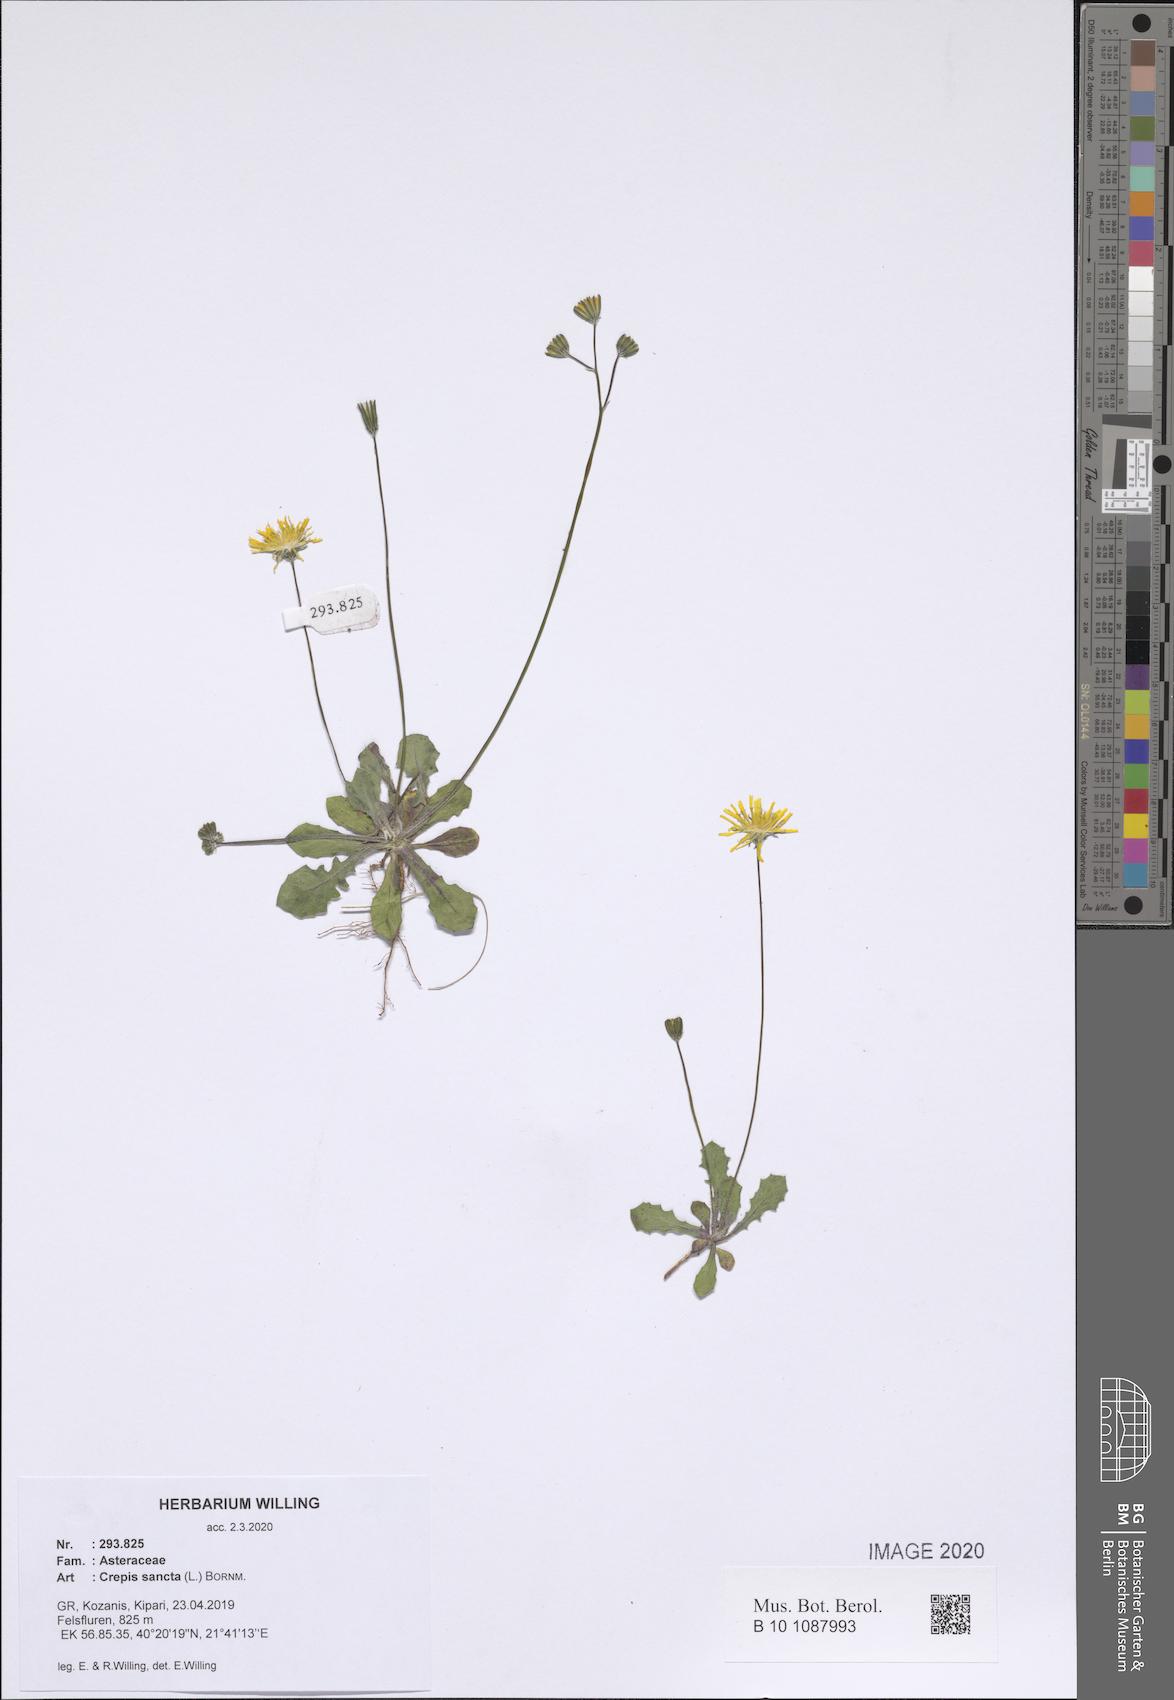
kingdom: Plantae
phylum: Tracheophyta
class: Magnoliopsida
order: Asterales
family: Asteraceae
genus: Crepis
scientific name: Crepis sancta
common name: Hawk's-beard
